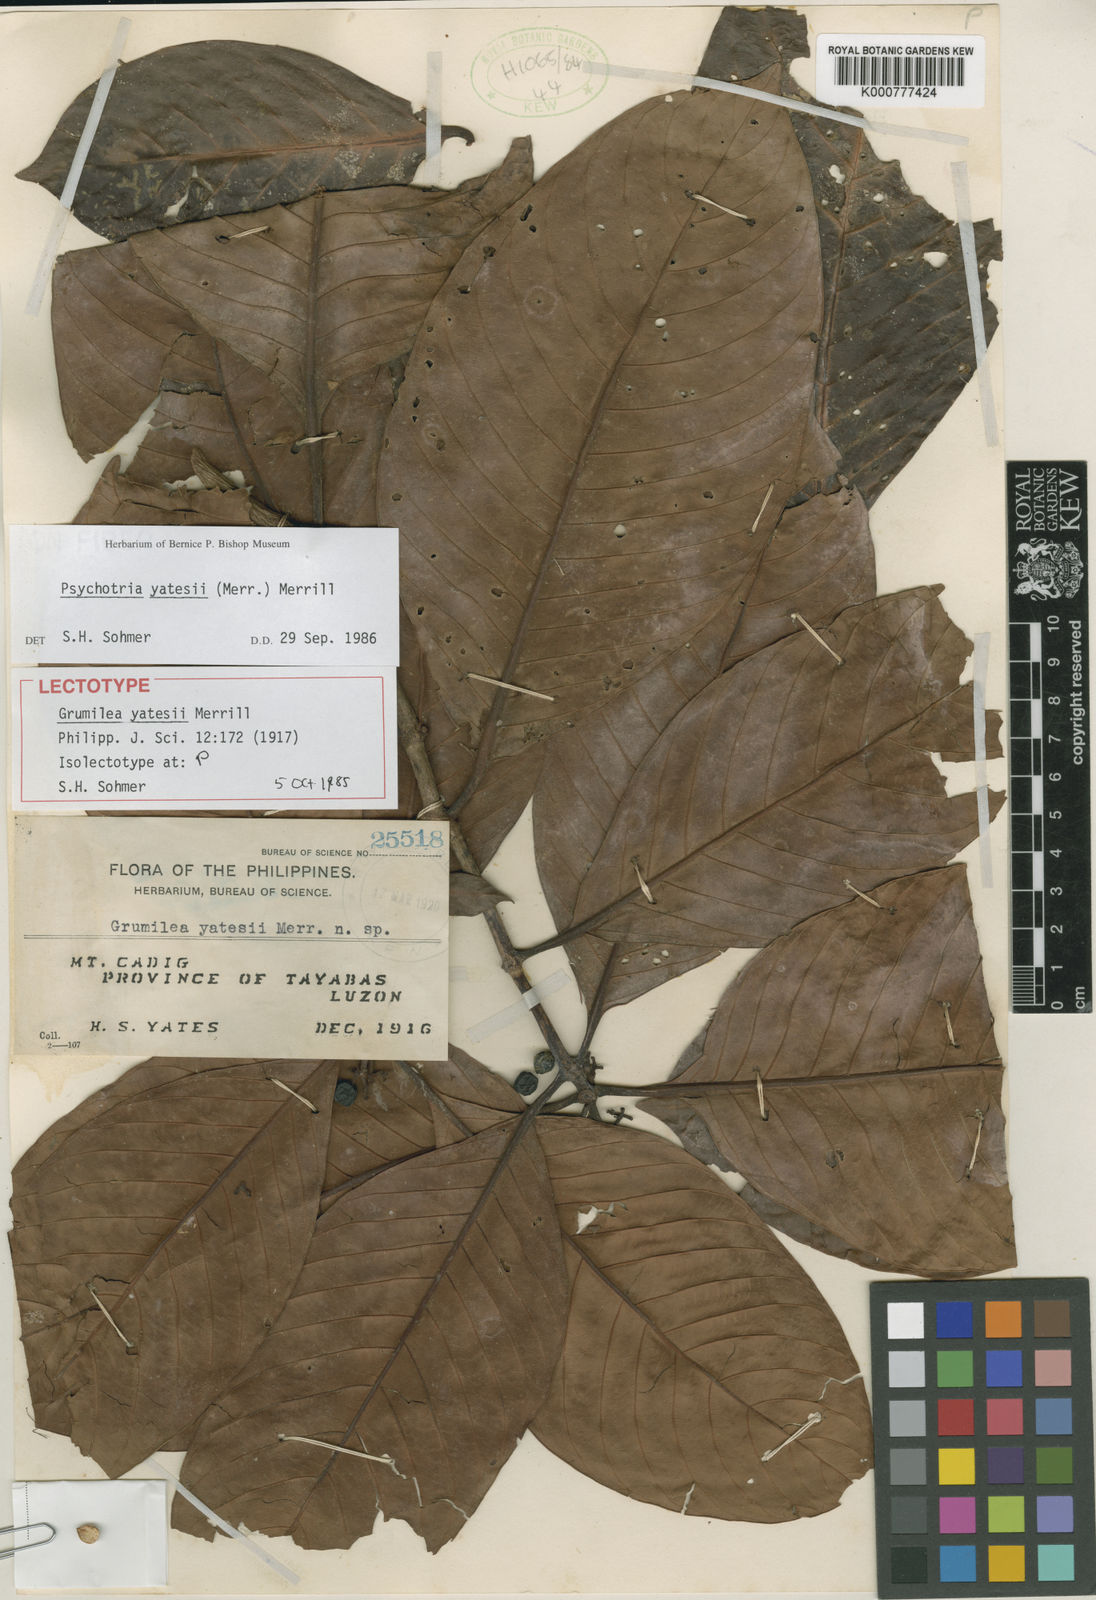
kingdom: Plantae
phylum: Tracheophyta
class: Magnoliopsida
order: Gentianales
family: Rubiaceae
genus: Psychotria
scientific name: Psychotria yatesii
